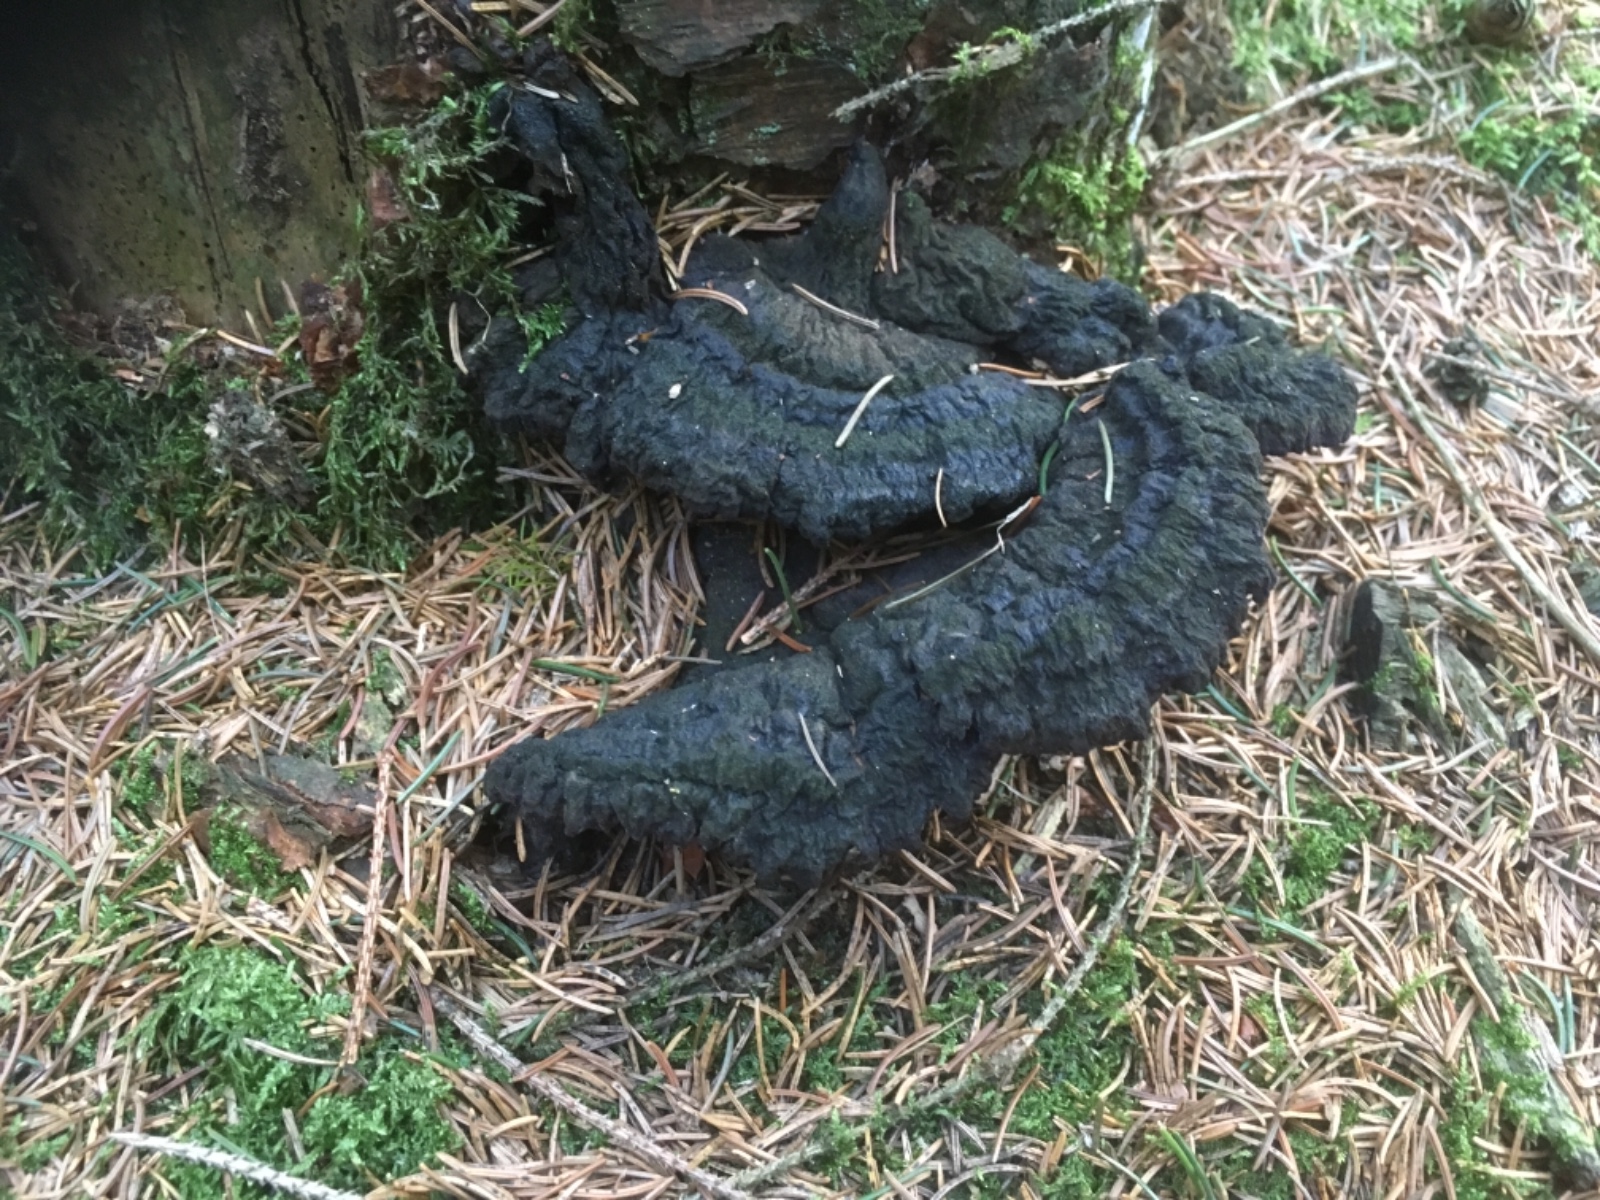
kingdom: Fungi
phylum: Basidiomycota
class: Agaricomycetes
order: Polyporales
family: Ischnodermataceae
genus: Ischnoderma
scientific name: Ischnoderma benzoinum
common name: gran-tjæreporesvamp
